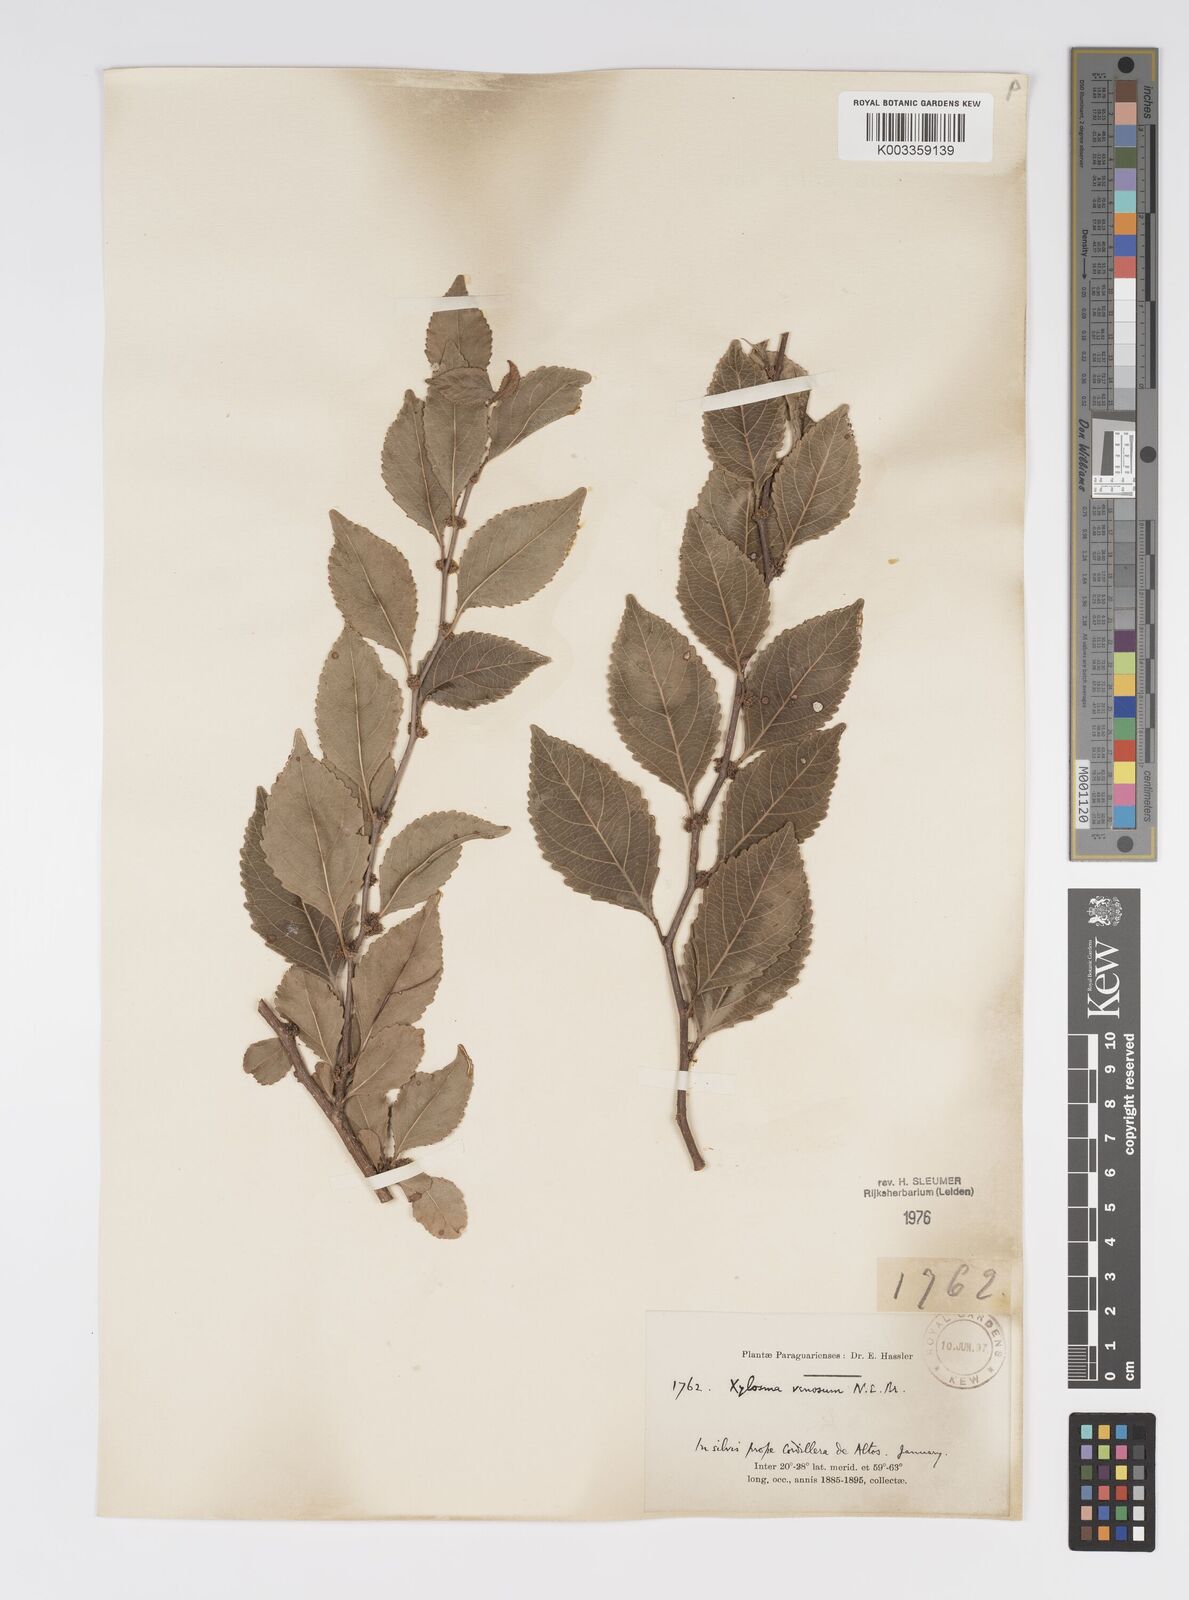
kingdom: Plantae
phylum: Tracheophyta
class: Magnoliopsida
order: Malpighiales
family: Salicaceae
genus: Xylosma
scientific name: Xylosma venosa
